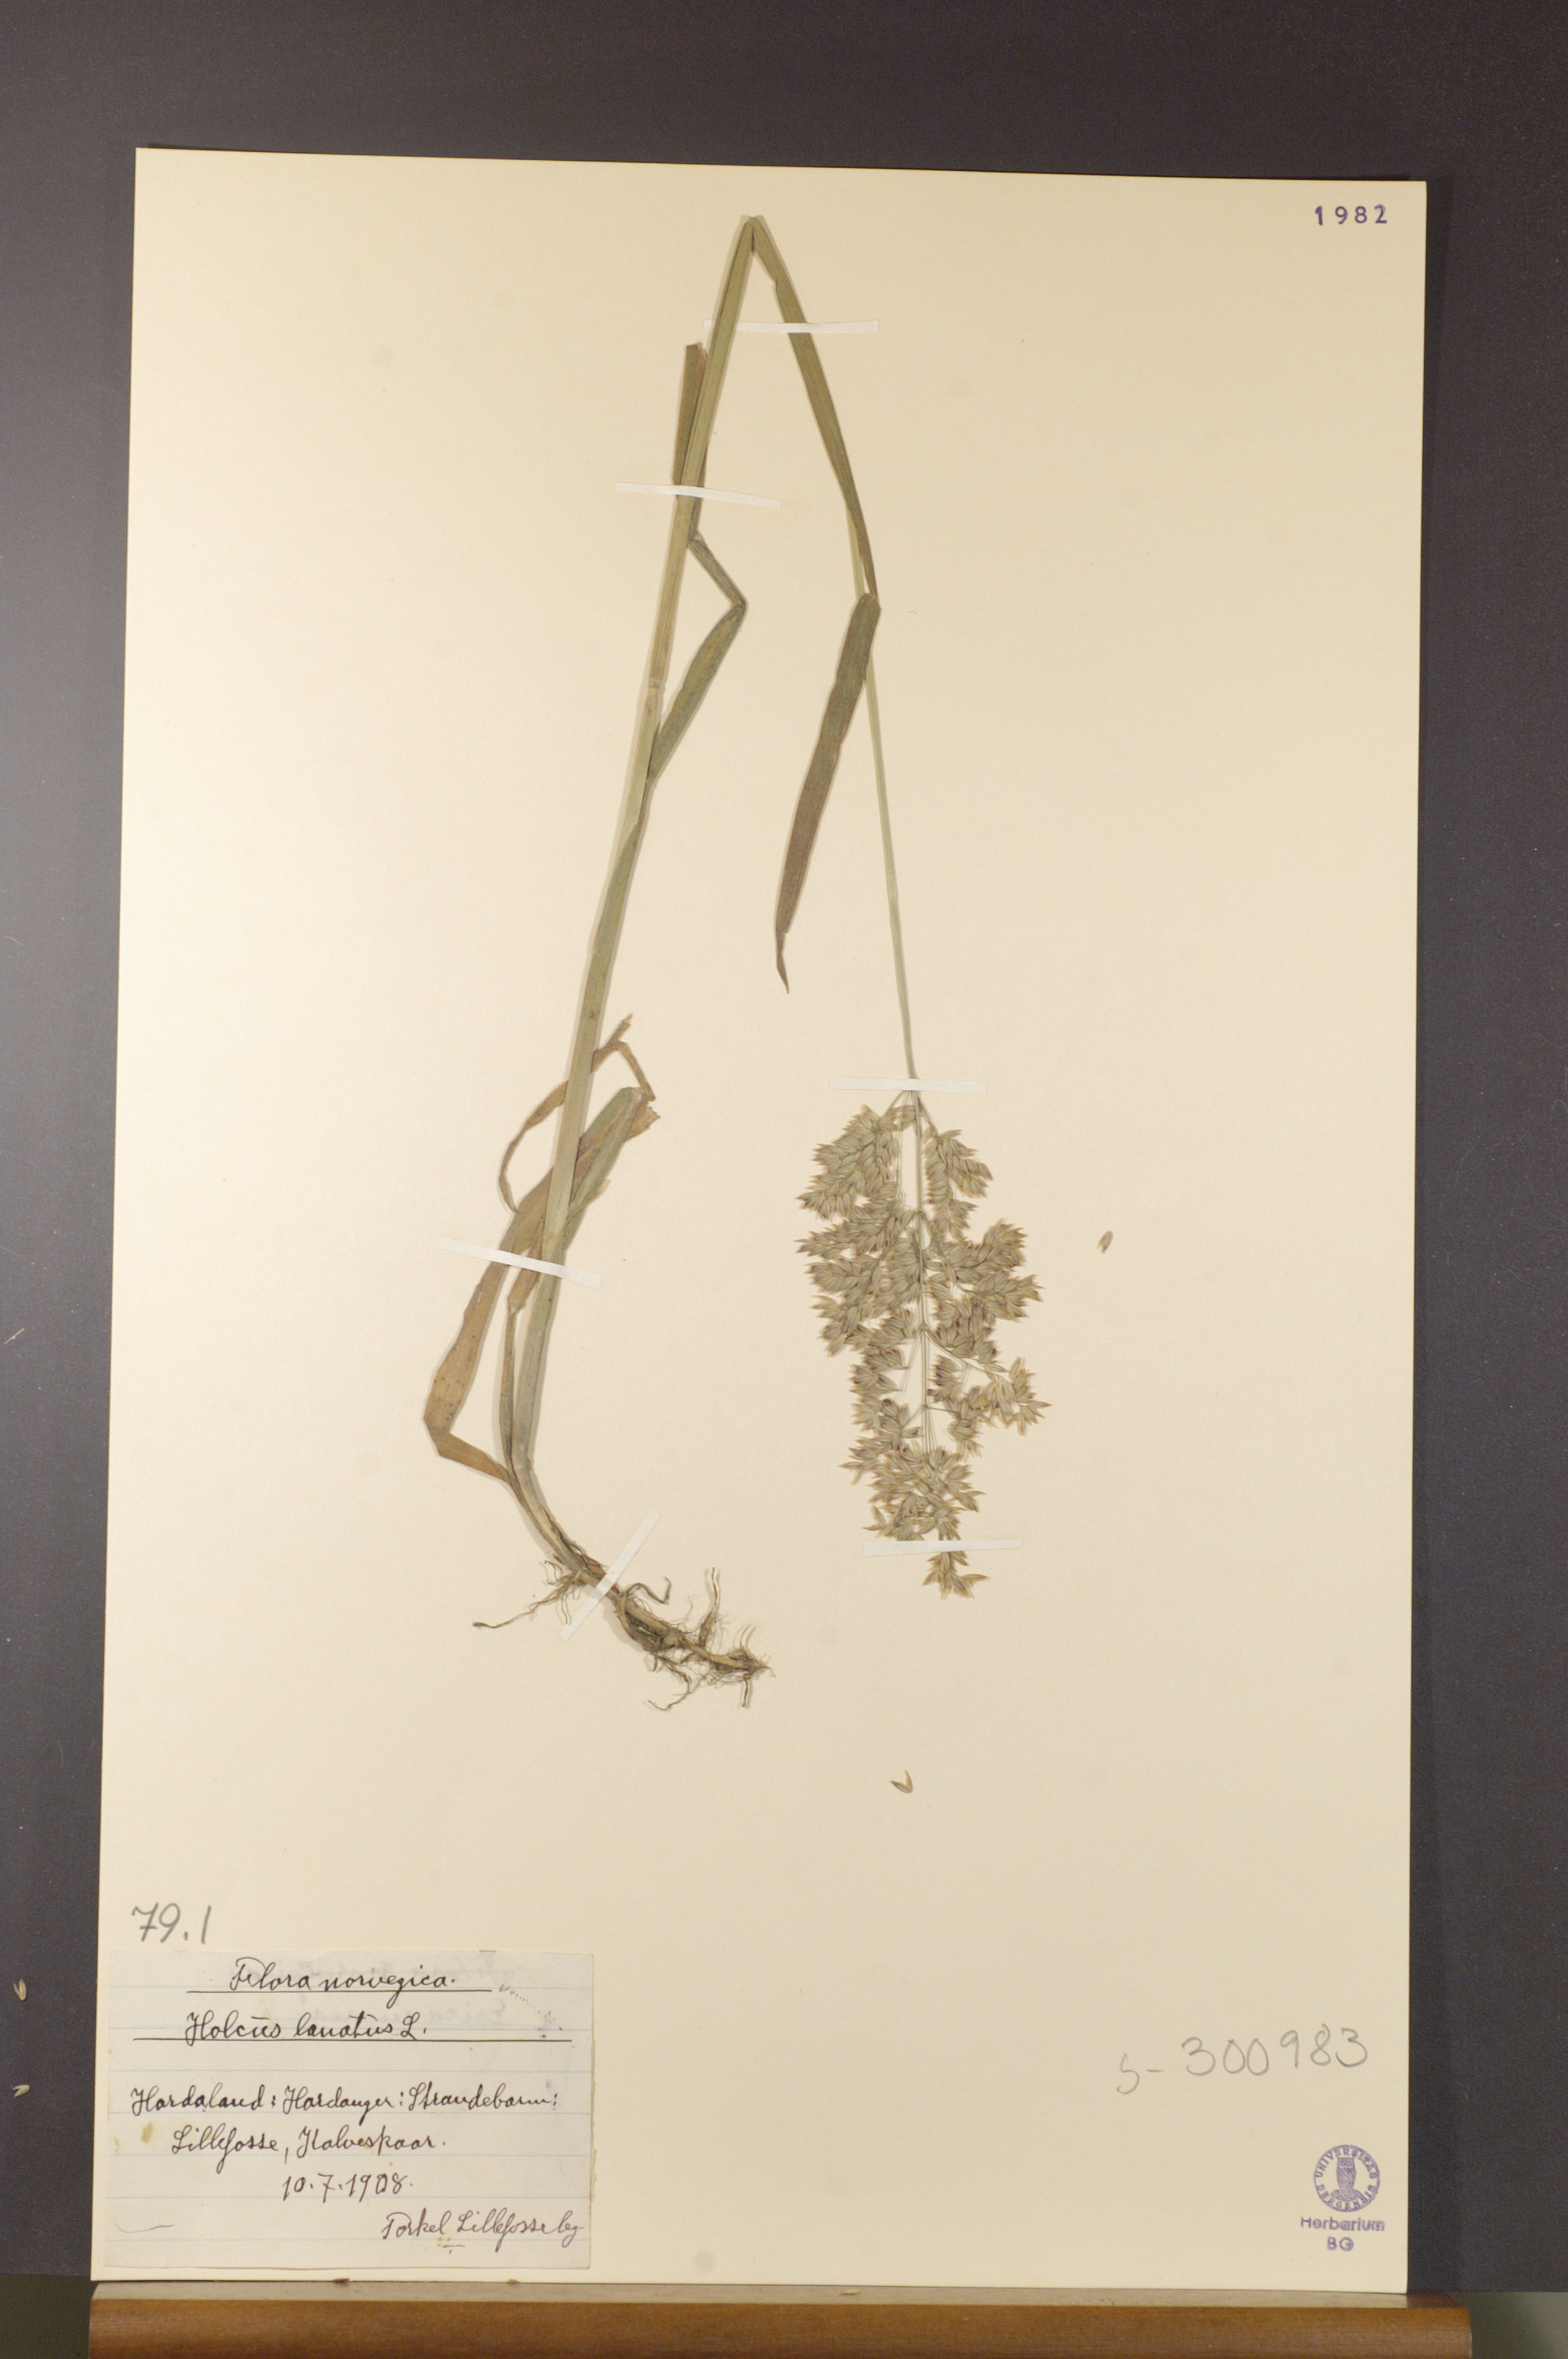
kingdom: Plantae
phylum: Tracheophyta
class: Liliopsida
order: Poales
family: Poaceae
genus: Holcus
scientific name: Holcus lanatus
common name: Yorkshire-fog
